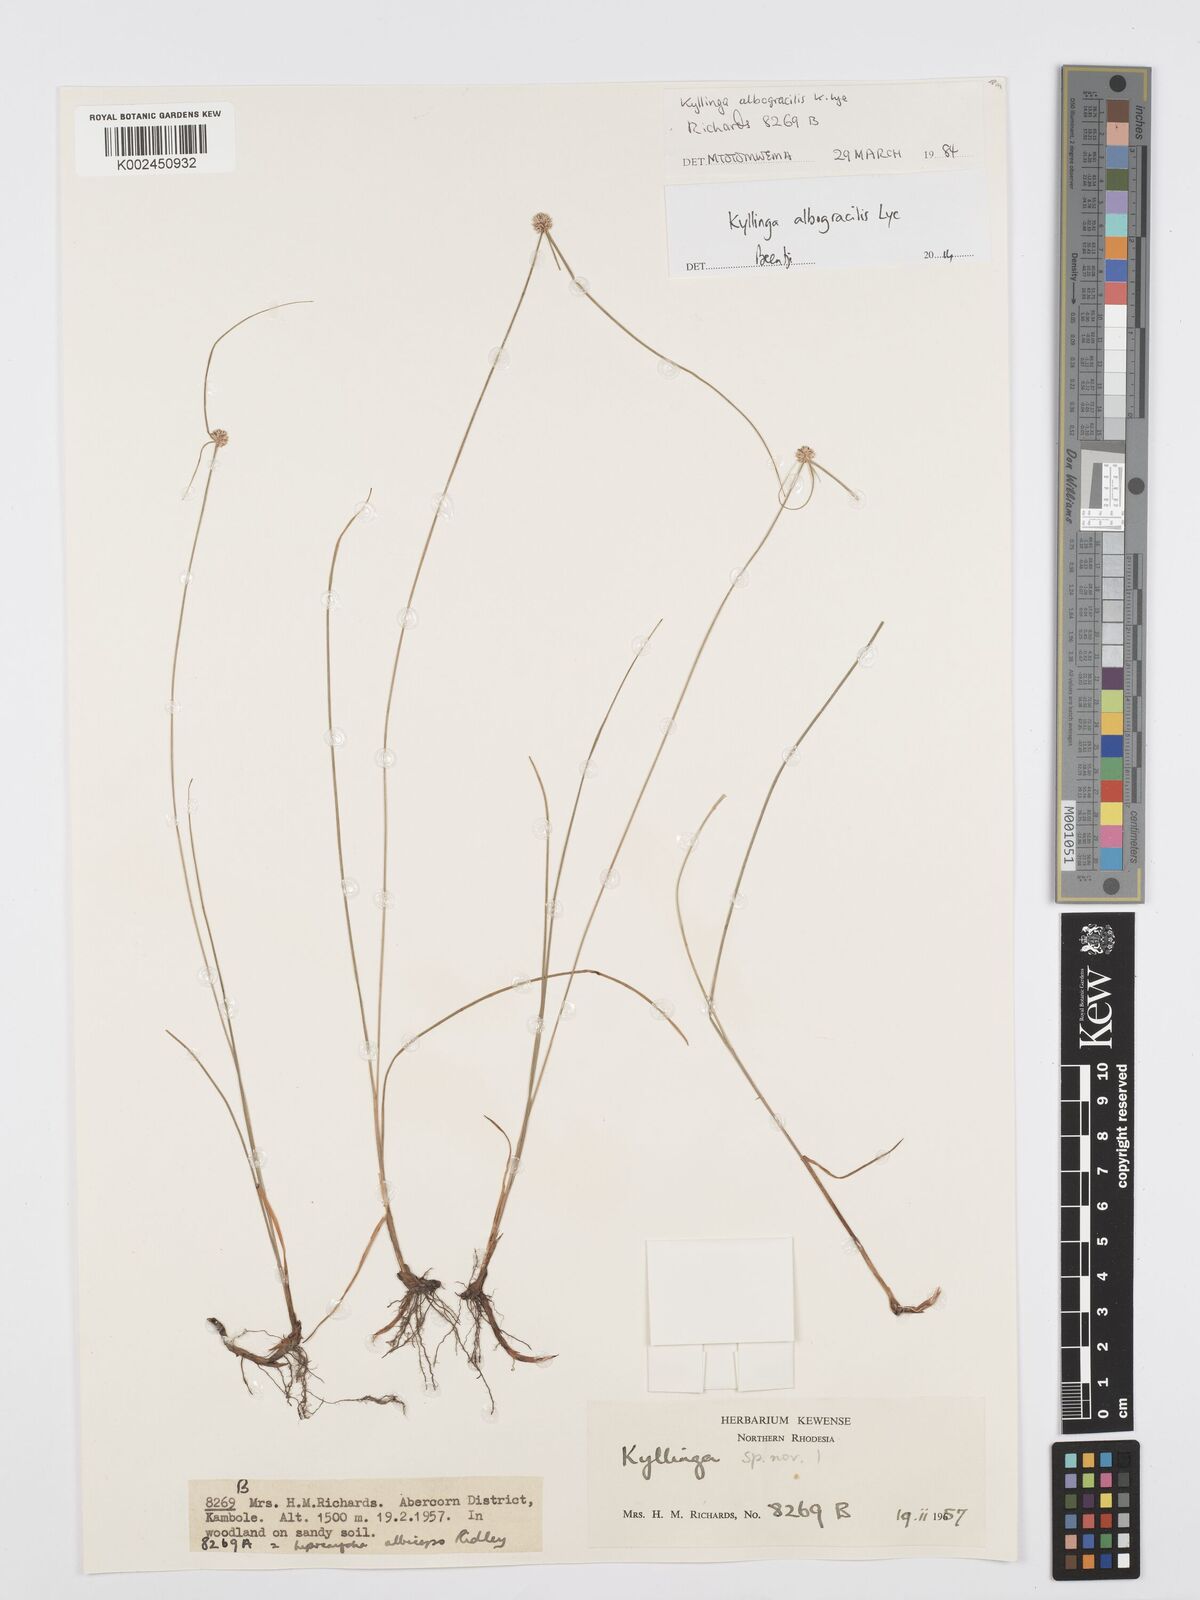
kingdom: Plantae
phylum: Tracheophyta
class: Liliopsida
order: Poales
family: Cyperaceae
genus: Cyperus
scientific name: Cyperus albogracilis
